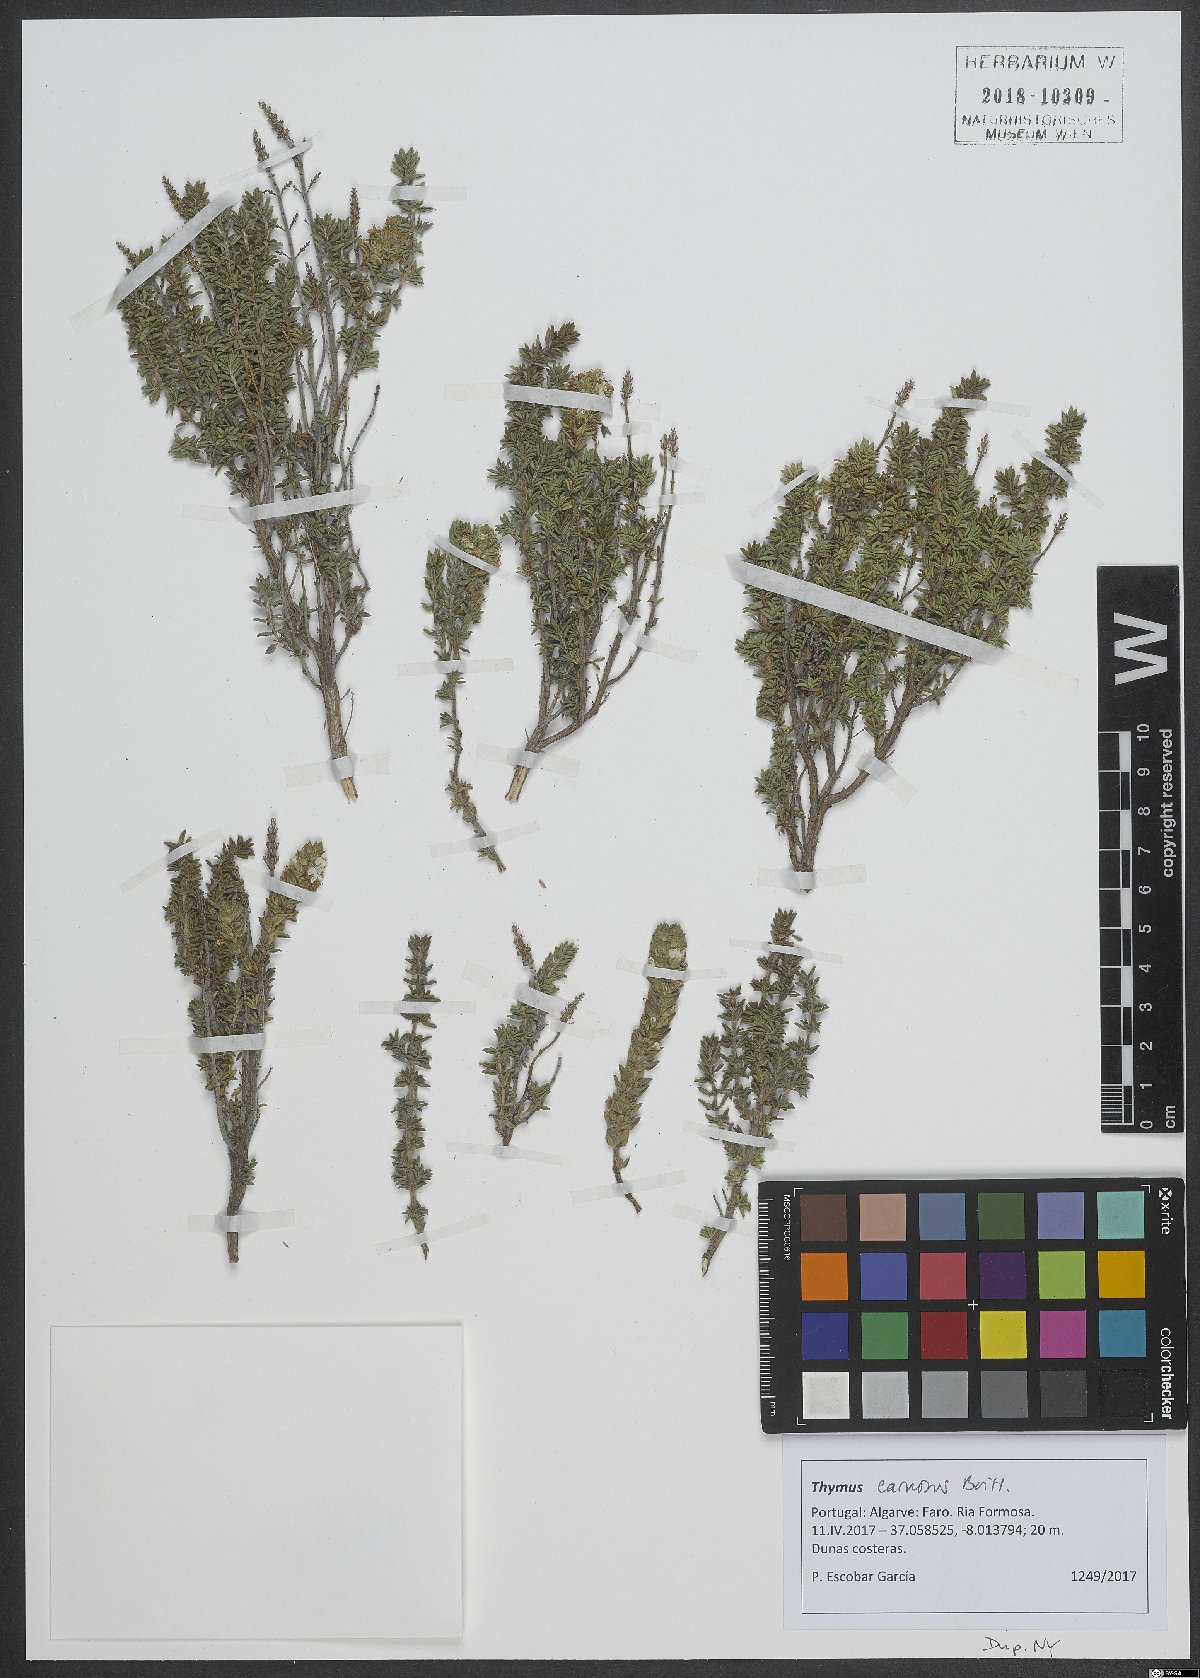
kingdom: Plantae
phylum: Tracheophyta
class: Magnoliopsida
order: Lamiales
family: Lamiaceae
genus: Thymus
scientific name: Thymus carnosus
